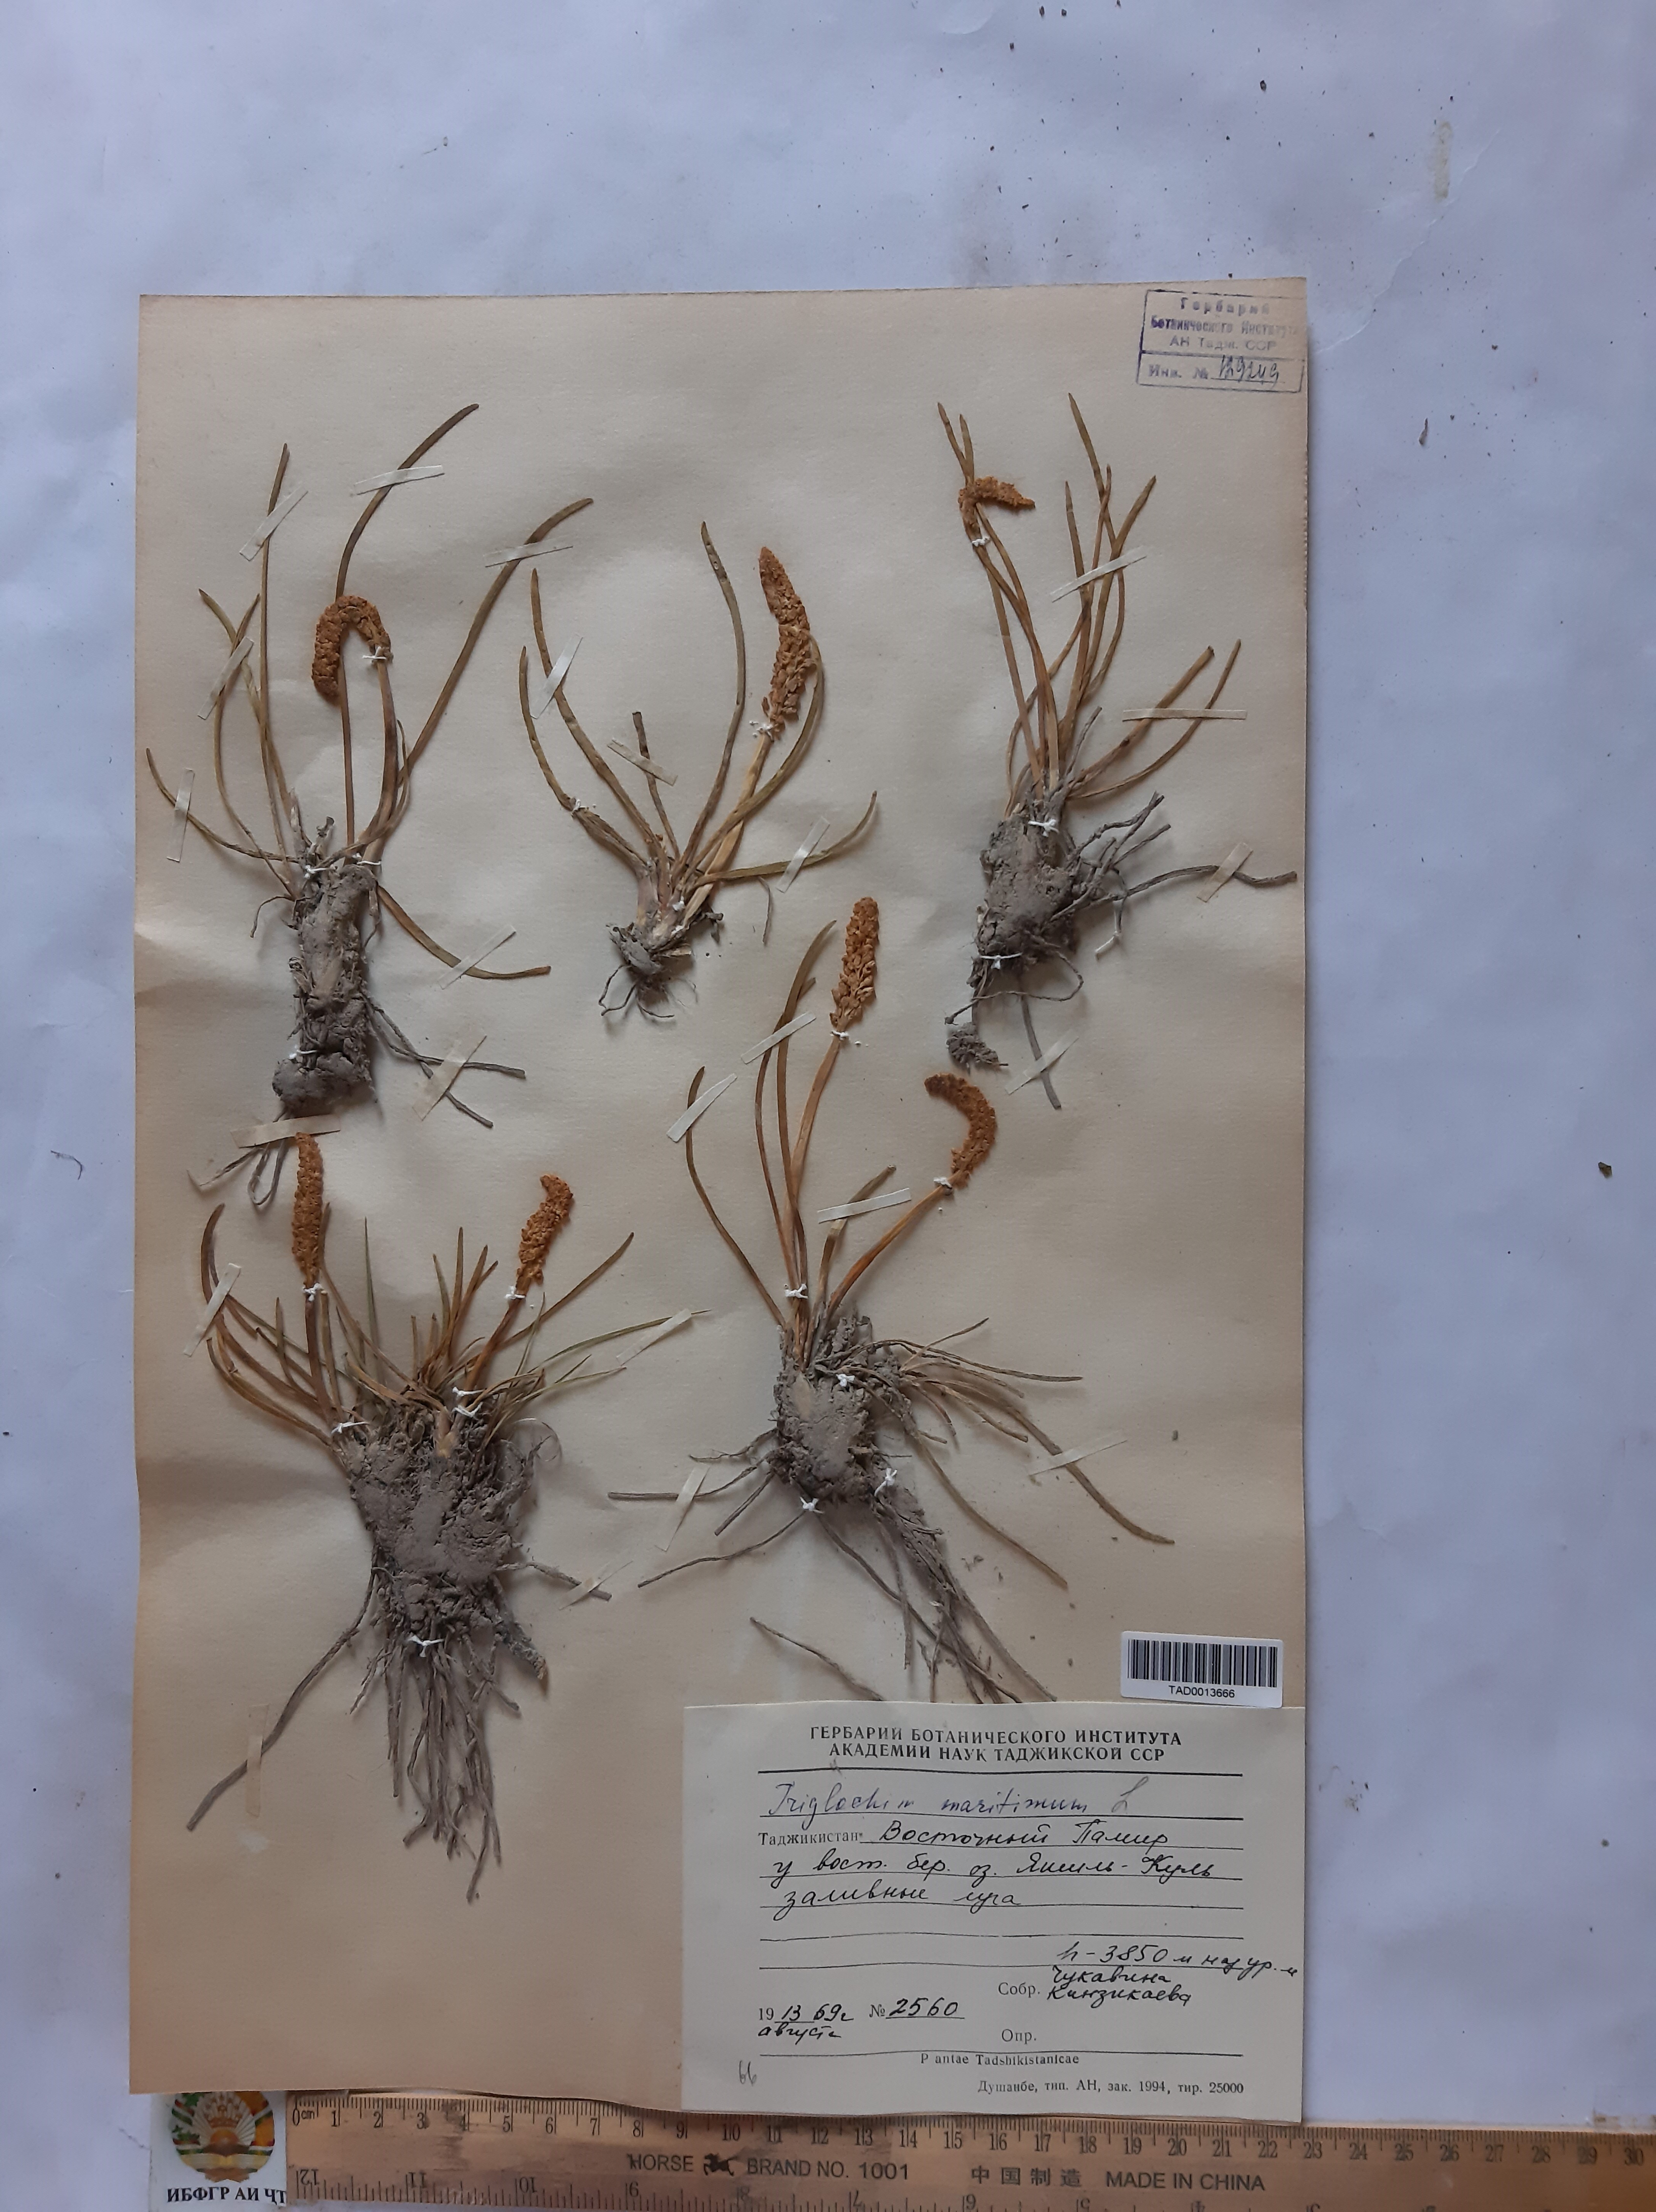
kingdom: Plantae
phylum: Tracheophyta
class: Liliopsida
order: Alismatales
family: Juncaginaceae
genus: Triglochin
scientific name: Triglochin maritima
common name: Sea arrowgrass
